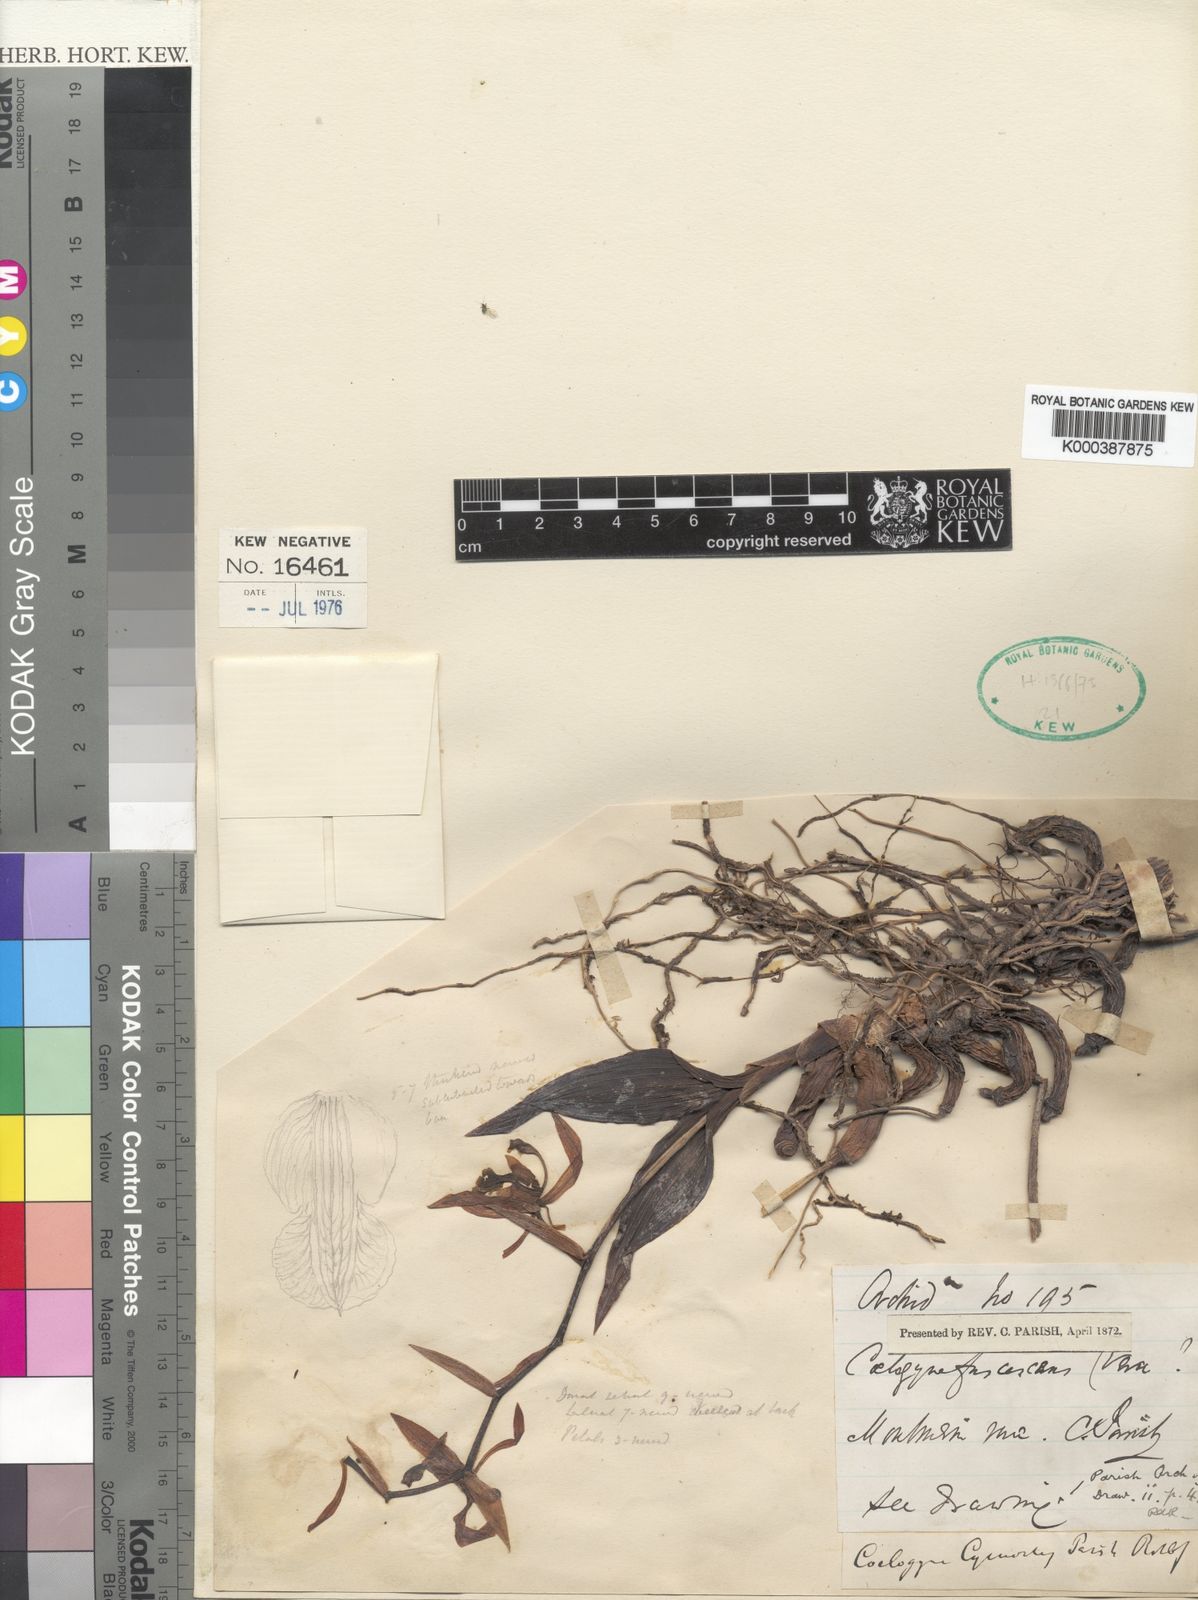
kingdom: Plantae
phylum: Tracheophyta
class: Liliopsida
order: Asparagales
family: Orchidaceae
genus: Coelogyne
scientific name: Coelogyne fuscescens
